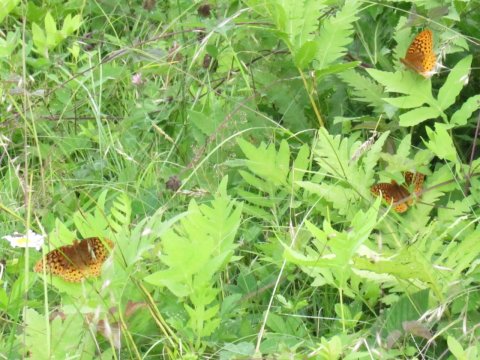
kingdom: Animalia
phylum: Arthropoda
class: Insecta
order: Lepidoptera
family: Nymphalidae
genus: Speyeria
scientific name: Speyeria cybele
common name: Great Spangled Fritillary
